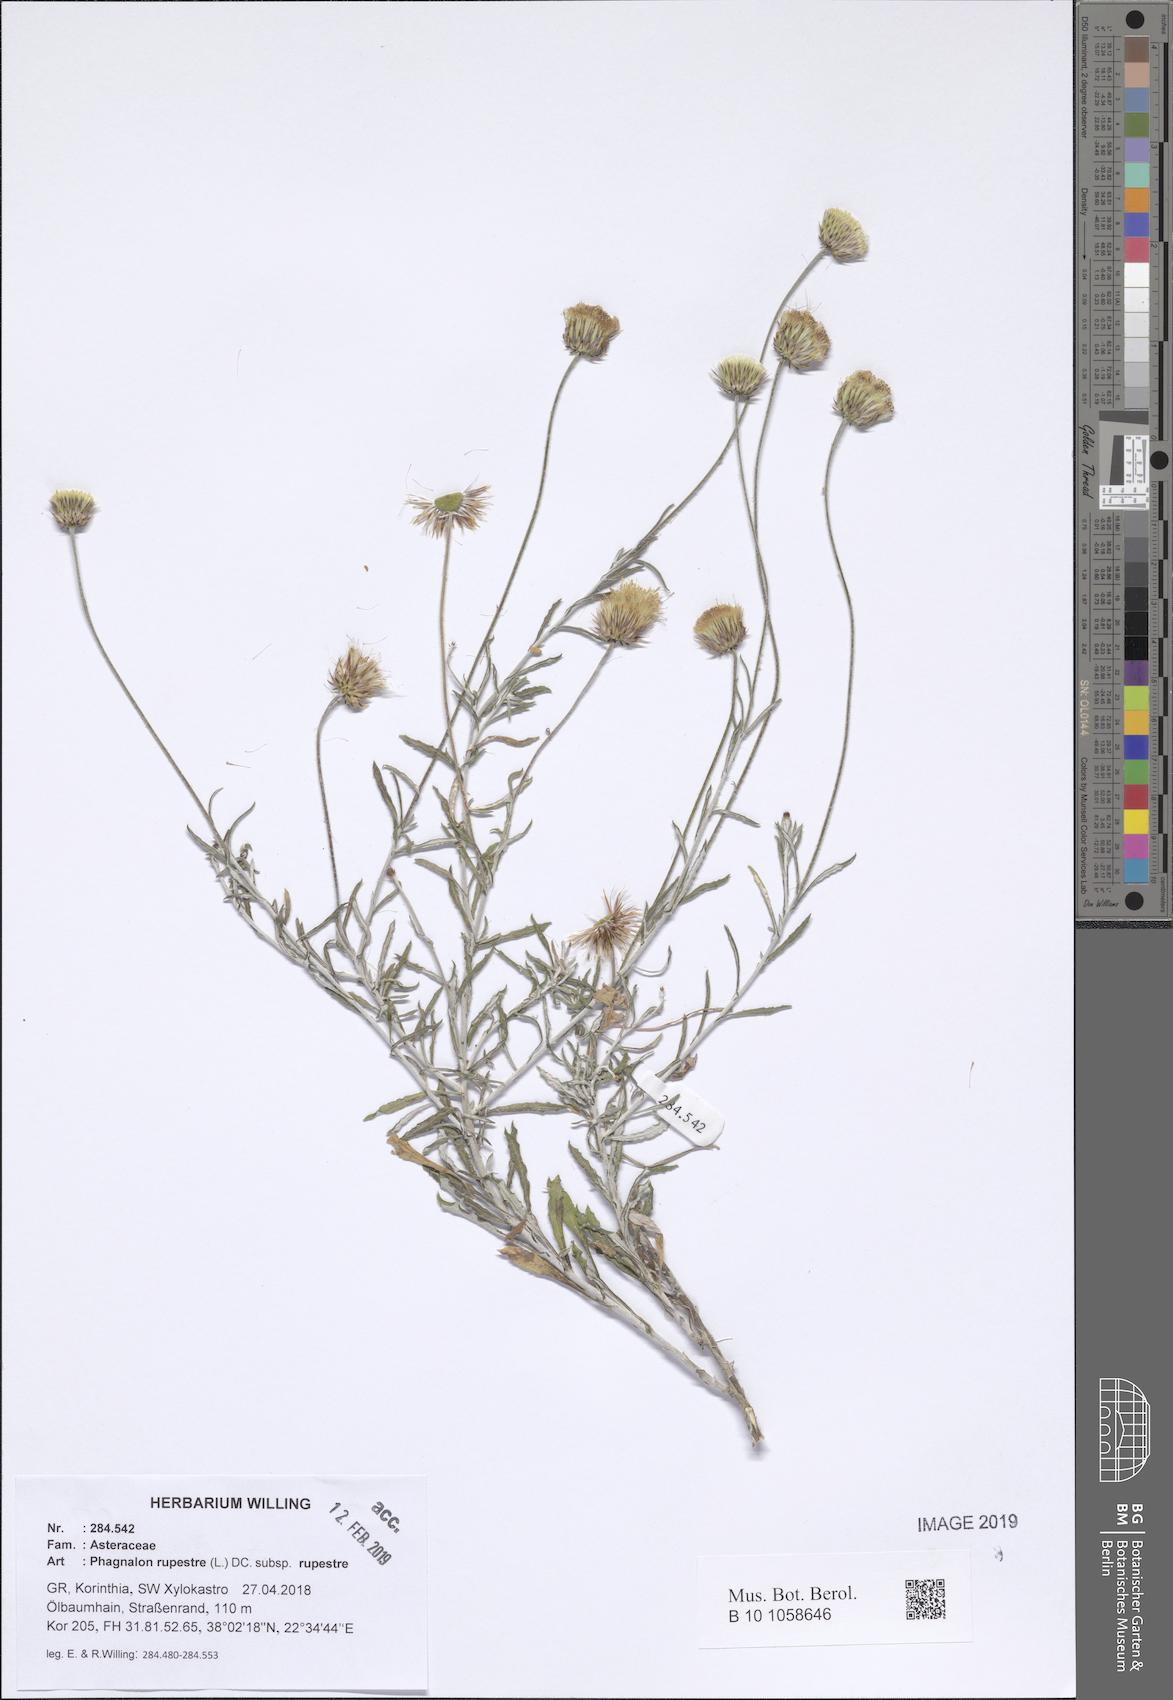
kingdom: Plantae
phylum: Tracheophyta
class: Magnoliopsida
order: Asterales
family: Asteraceae
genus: Phagnalon
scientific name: Phagnalon rupestre
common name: Rock phagnalon
